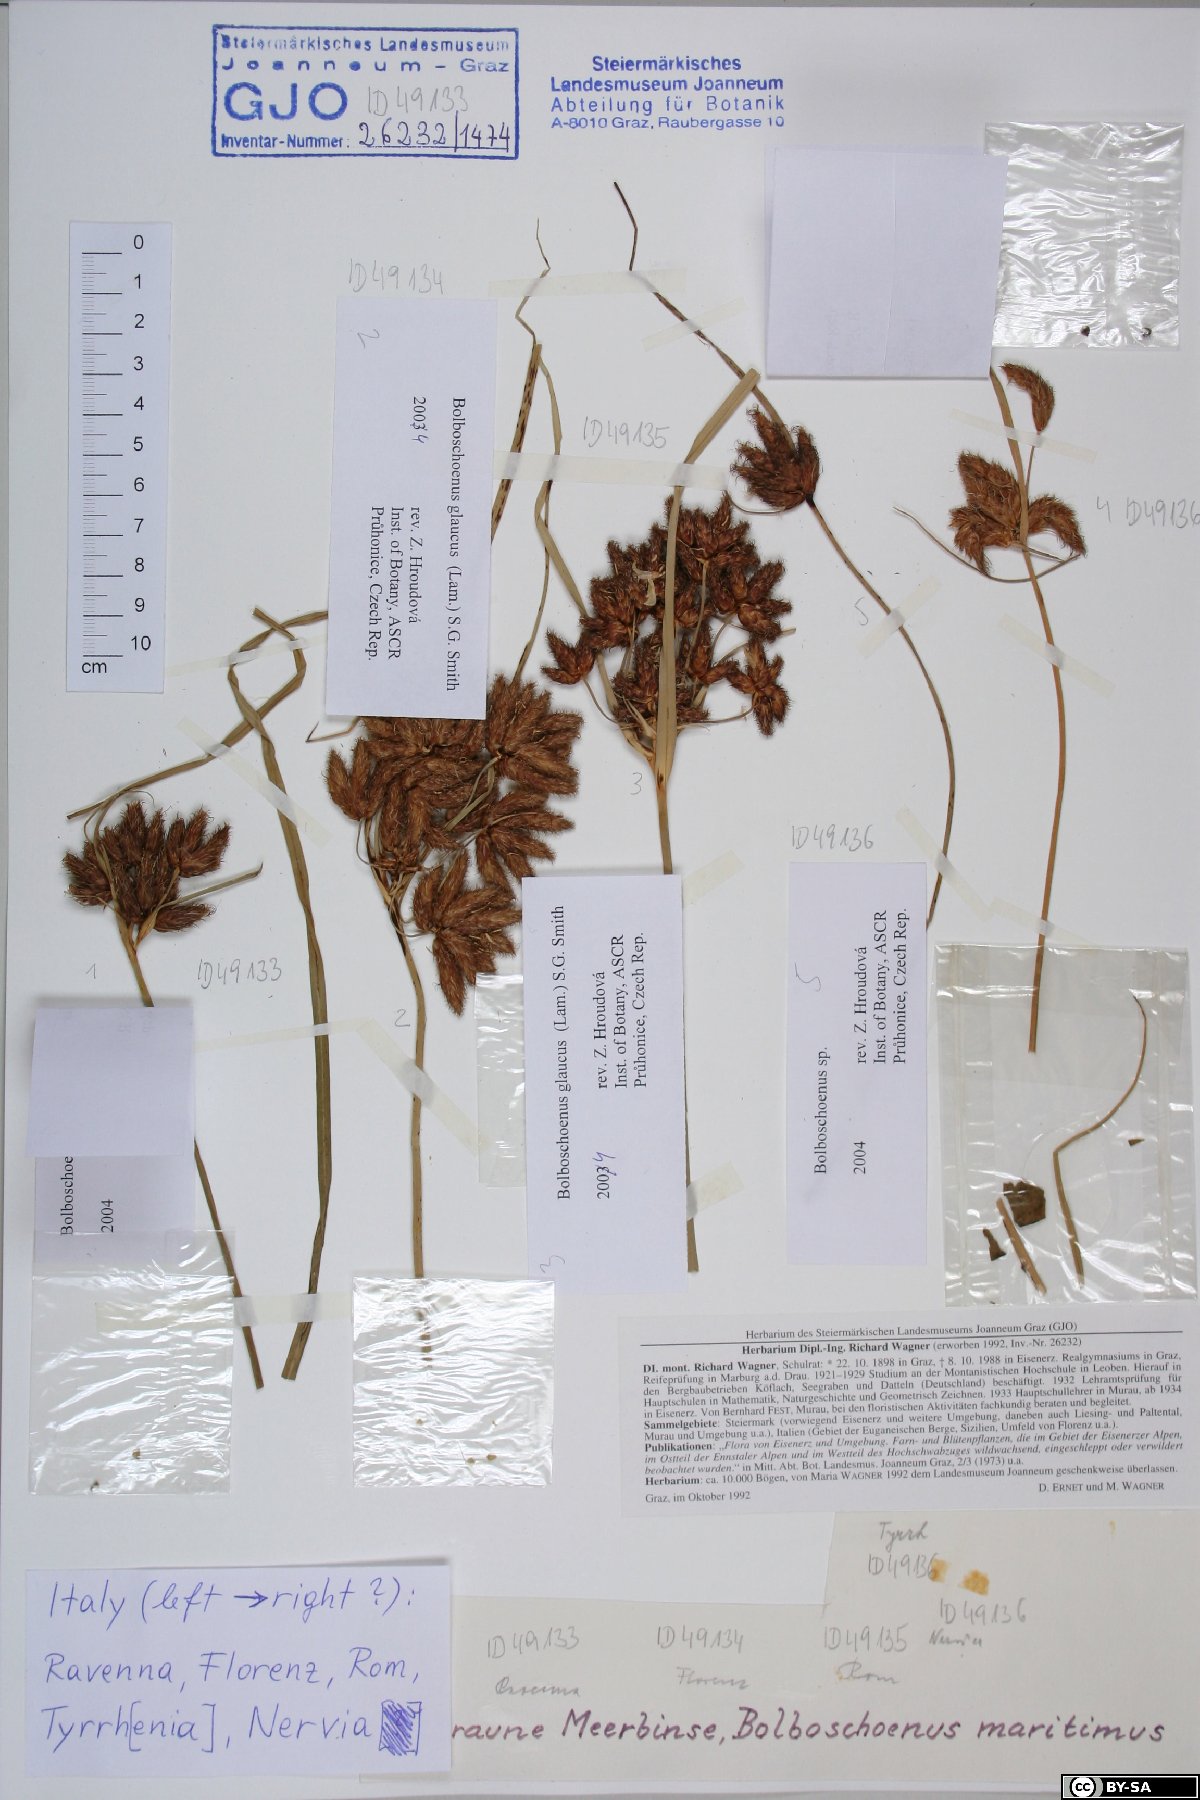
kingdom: Plantae
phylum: Tracheophyta
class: Liliopsida
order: Poales
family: Cyperaceae
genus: Bolboschoenus
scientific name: Bolboschoenus maritimus
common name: Sea club-rush
